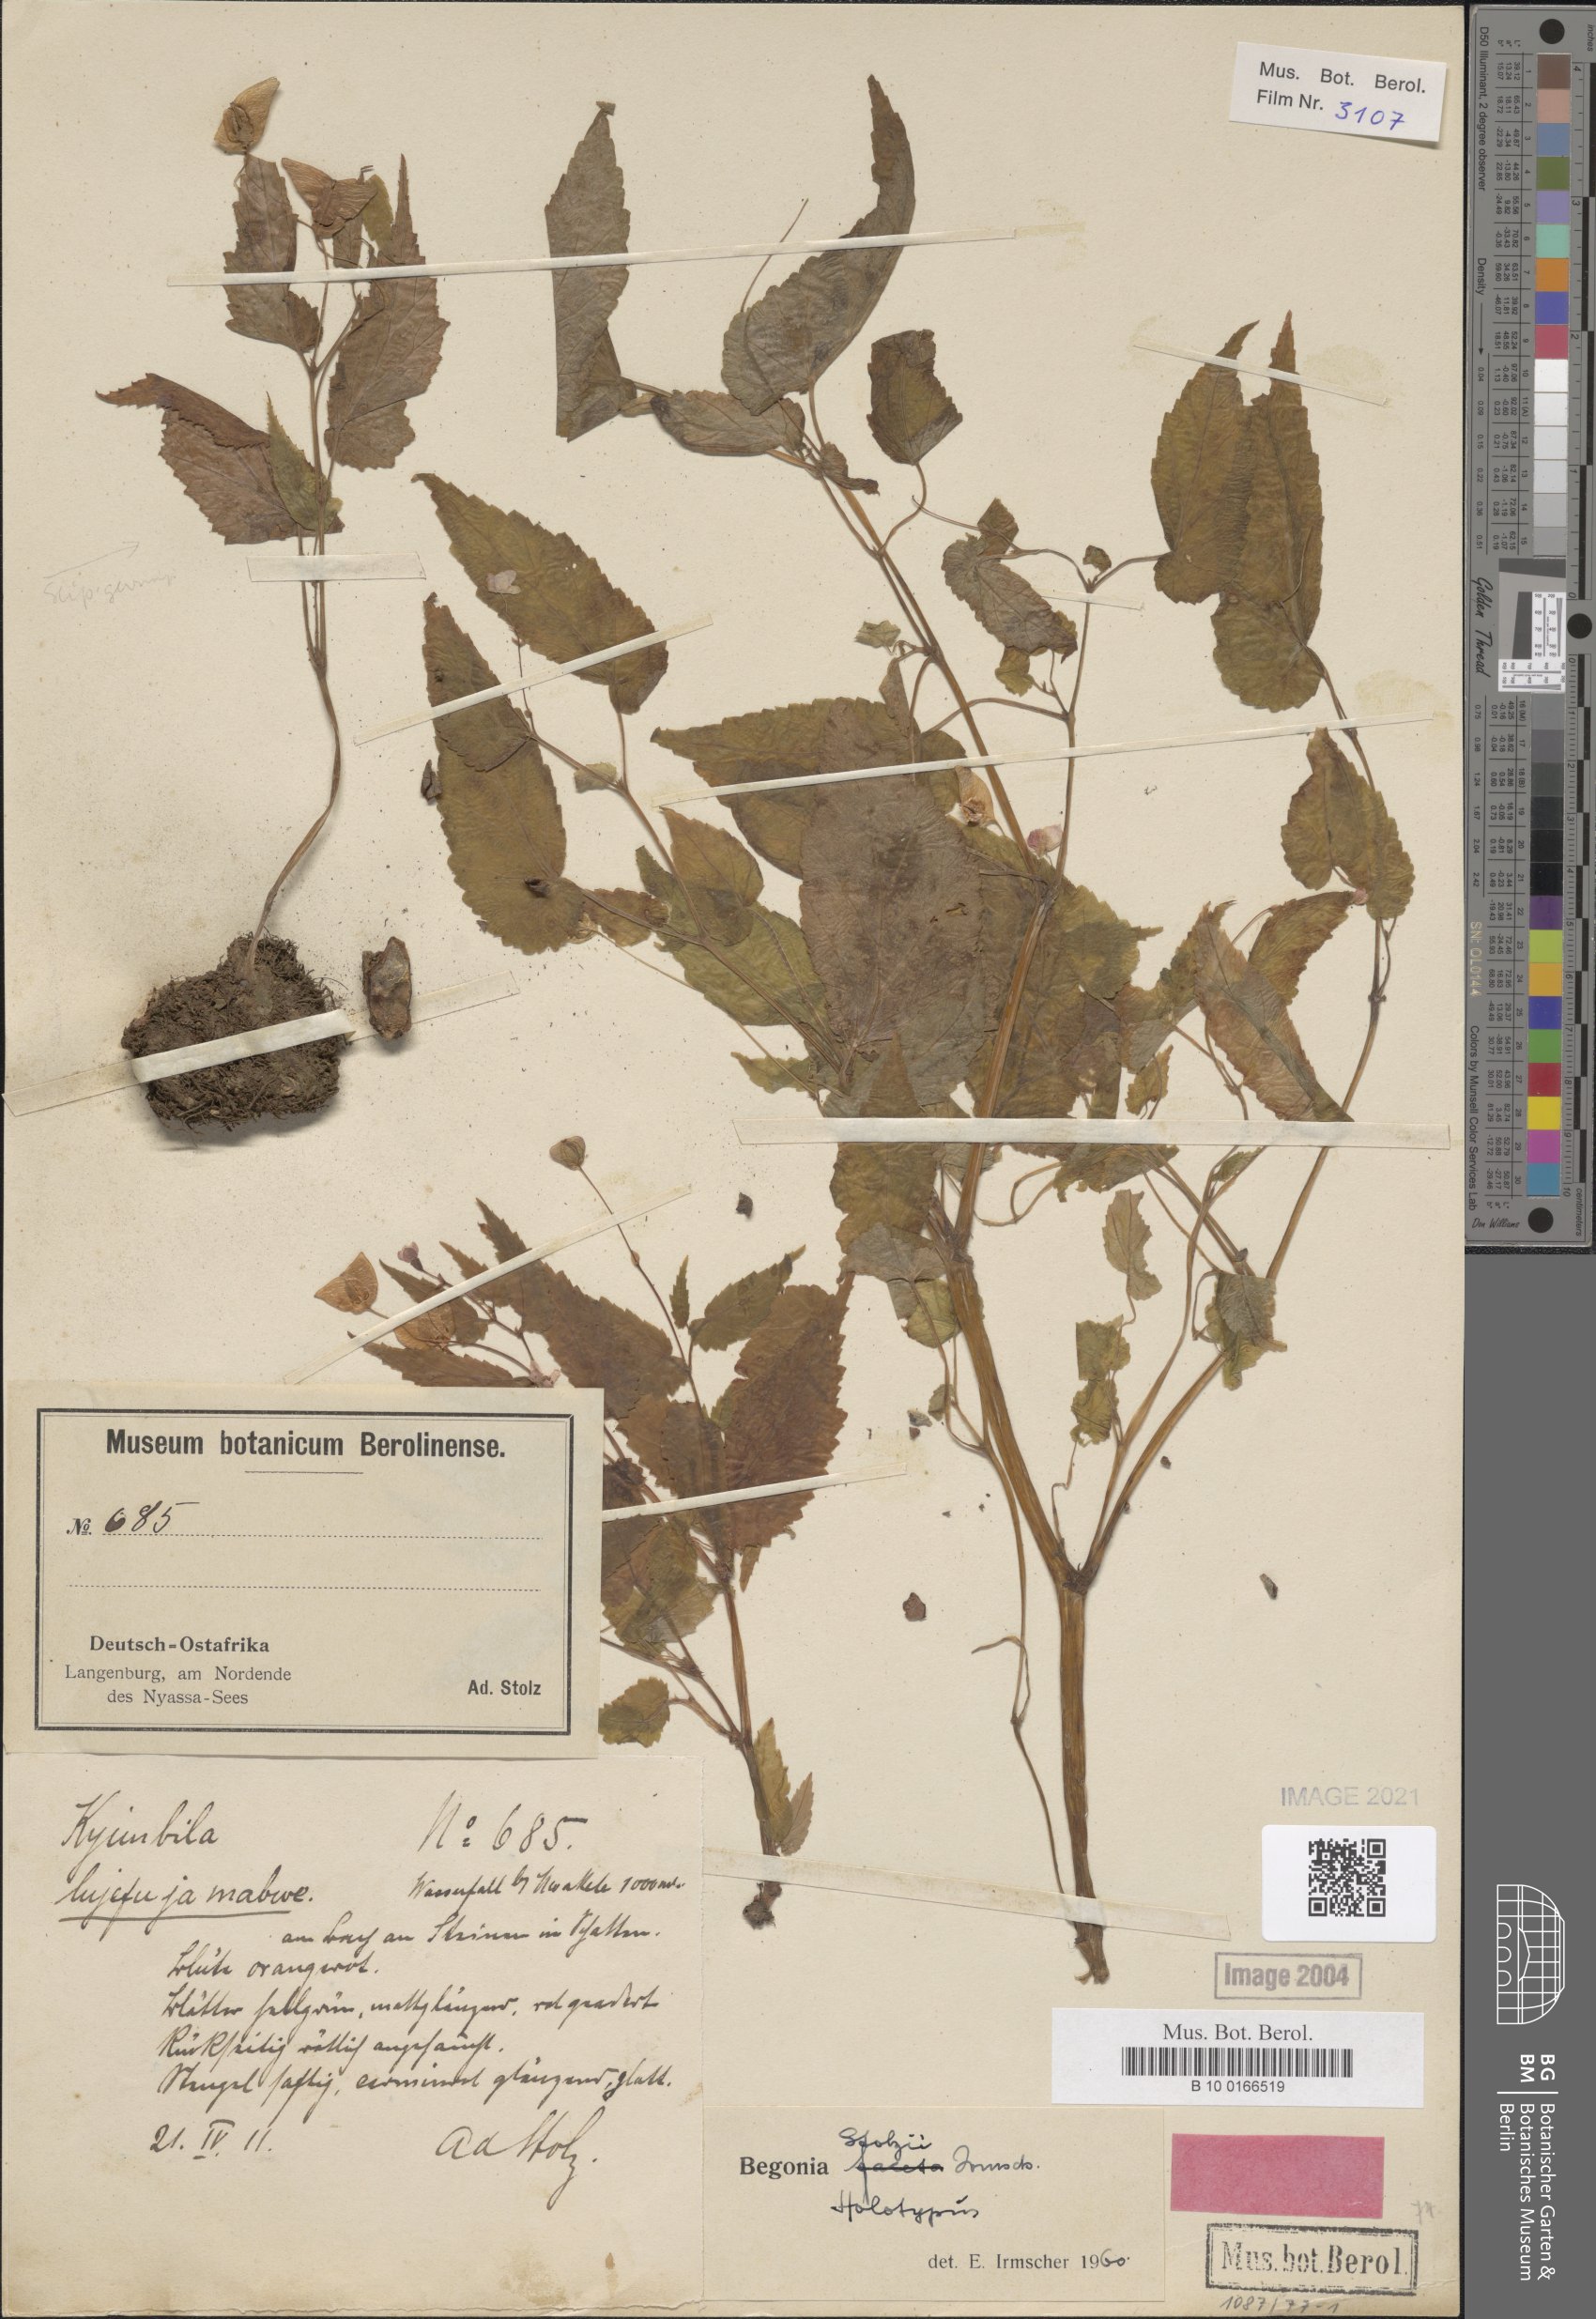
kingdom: Plantae
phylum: Tracheophyta
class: Magnoliopsida
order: Cucurbitales
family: Begoniaceae
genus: Begonia
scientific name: Begonia stolzii
